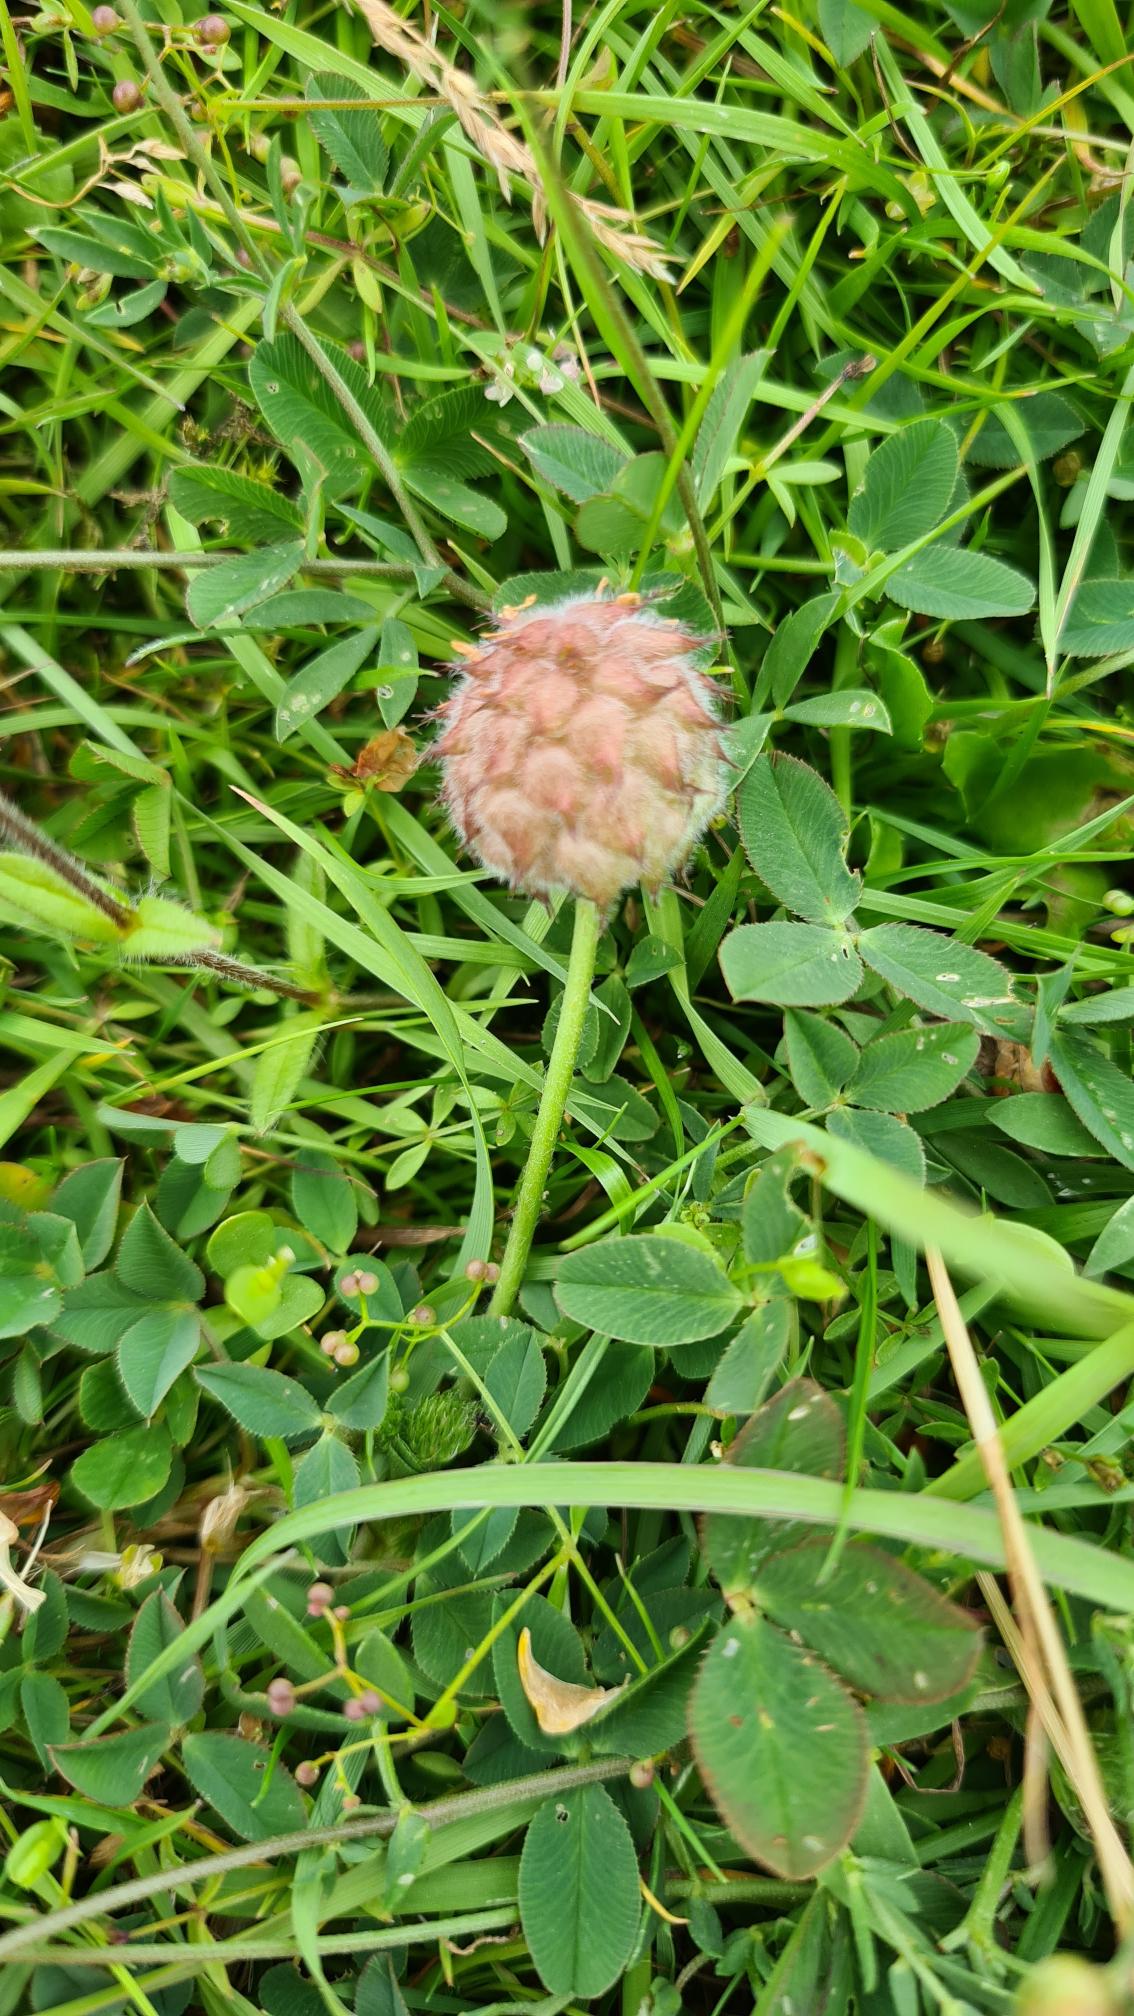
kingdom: Plantae
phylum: Tracheophyta
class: Magnoliopsida
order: Fabales
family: Fabaceae
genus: Trifolium
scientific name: Trifolium fragiferum
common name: Jordbær-kløver
